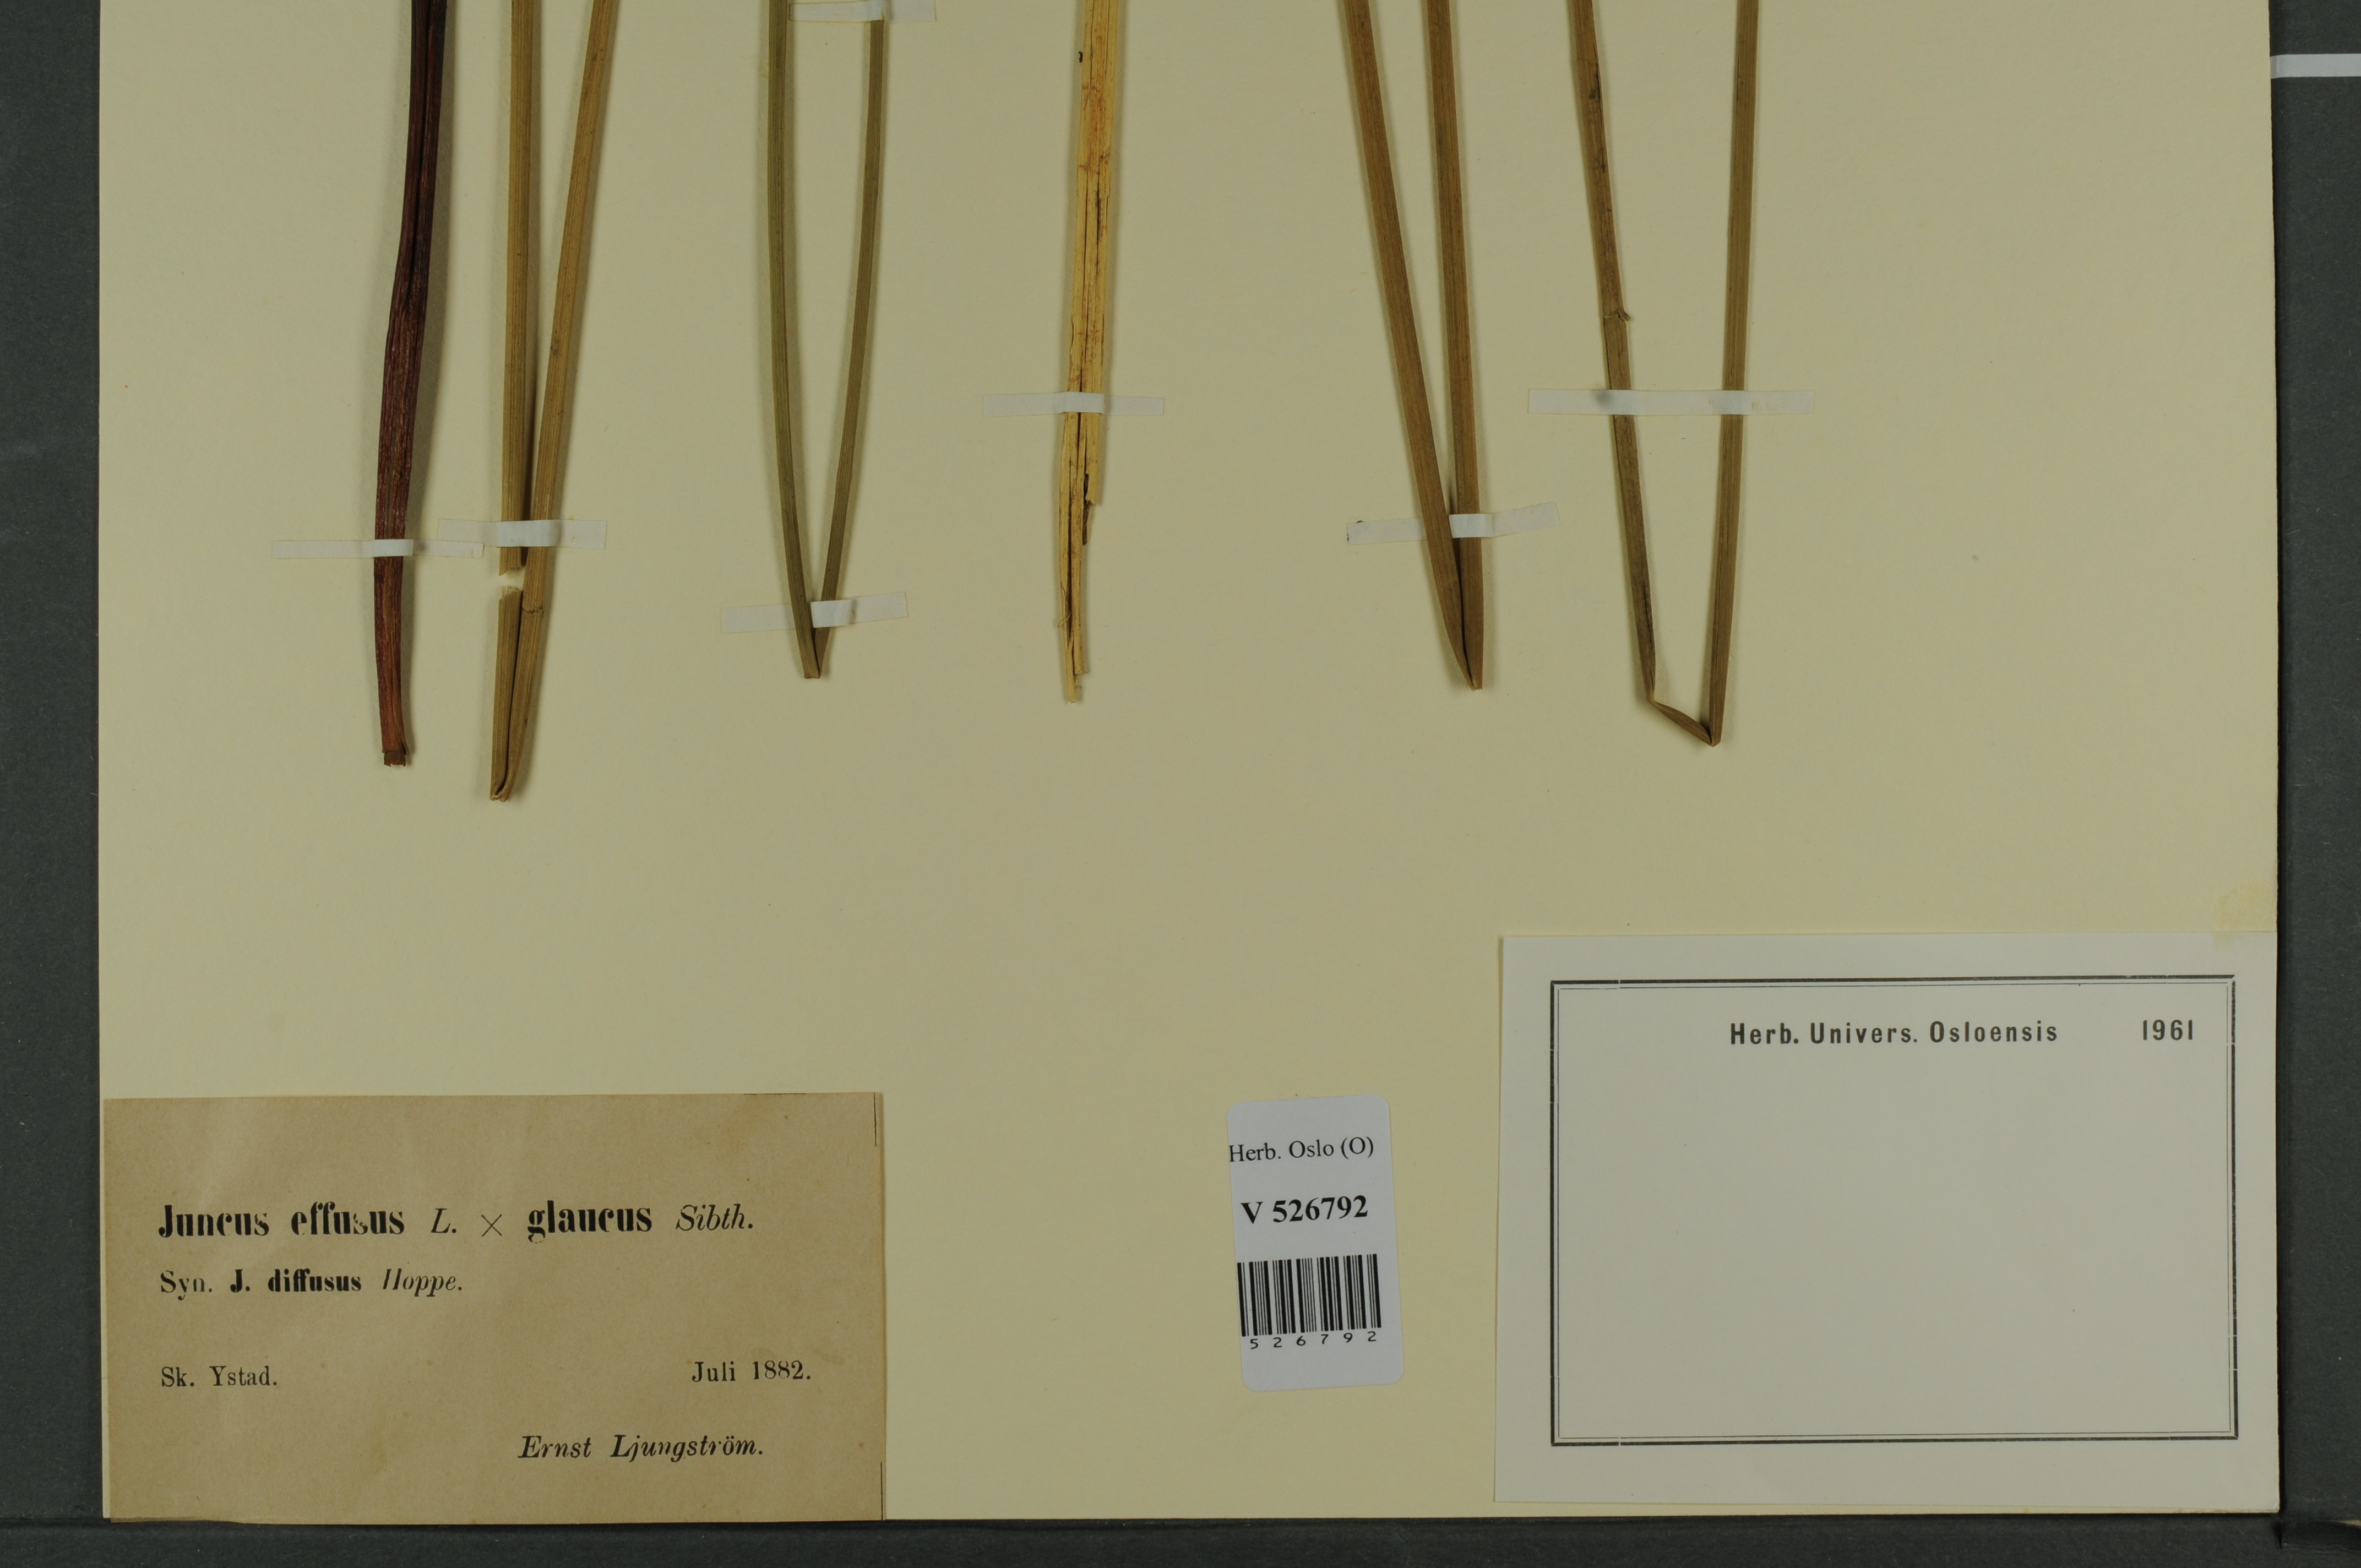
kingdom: Plantae
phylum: Tracheophyta
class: Liliopsida
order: Poales
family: Juncaceae
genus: Juncus
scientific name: Juncus
